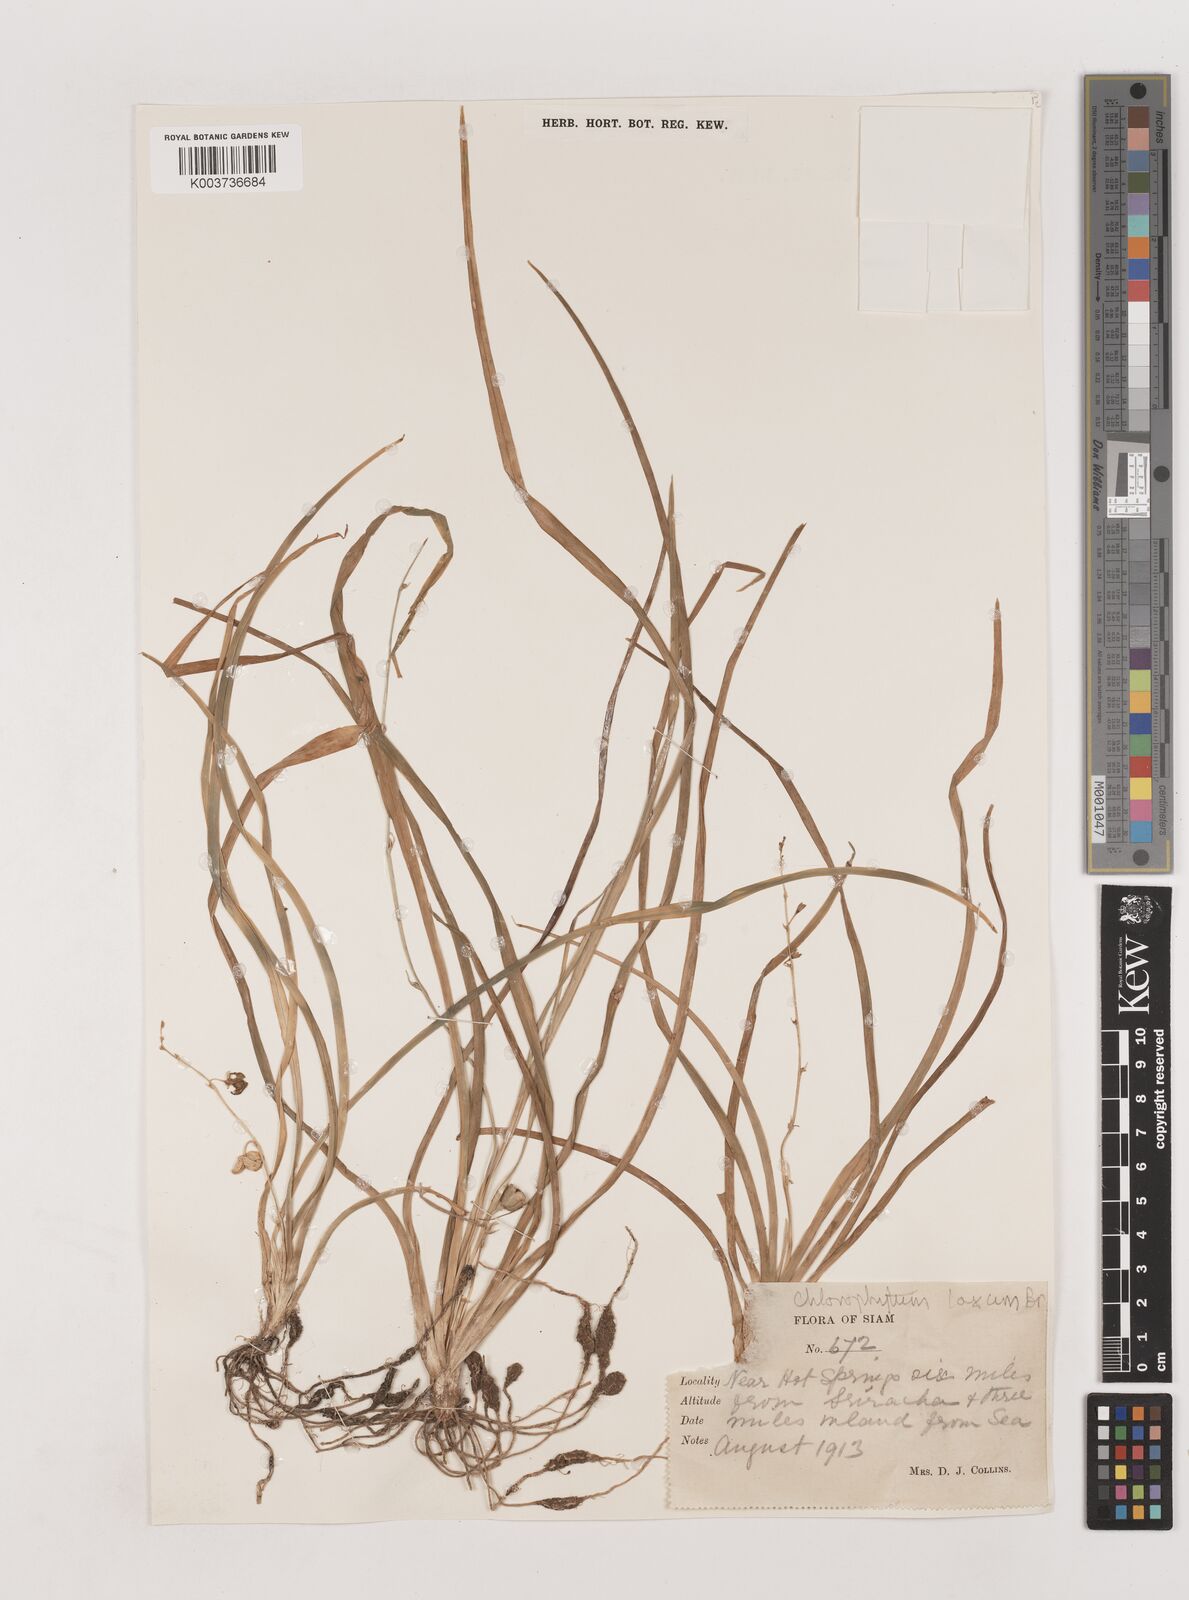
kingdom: Plantae
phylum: Tracheophyta
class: Liliopsida
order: Asparagales
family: Asparagaceae
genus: Chlorophytum
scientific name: Chlorophytum laxum
